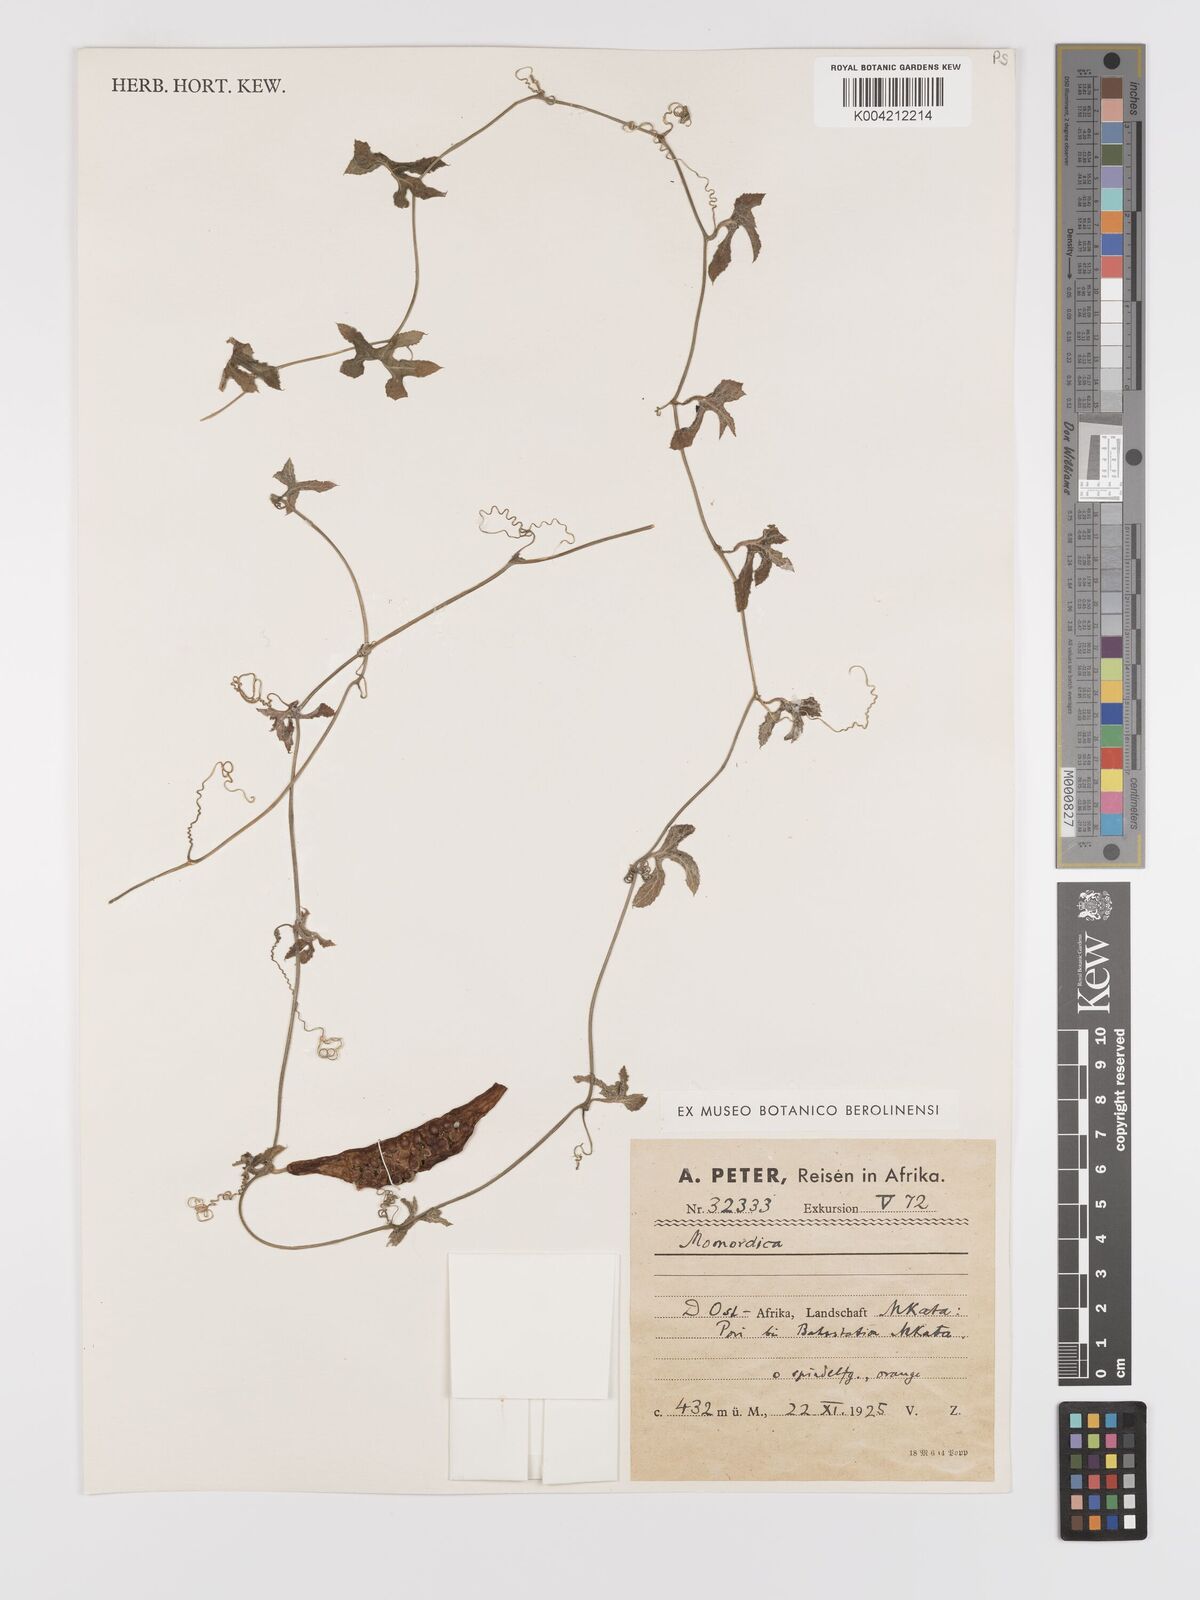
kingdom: Plantae
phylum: Tracheophyta
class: Magnoliopsida
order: Cucurbitales
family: Cucurbitaceae
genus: Kedrostis
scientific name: Kedrostis abdallae
